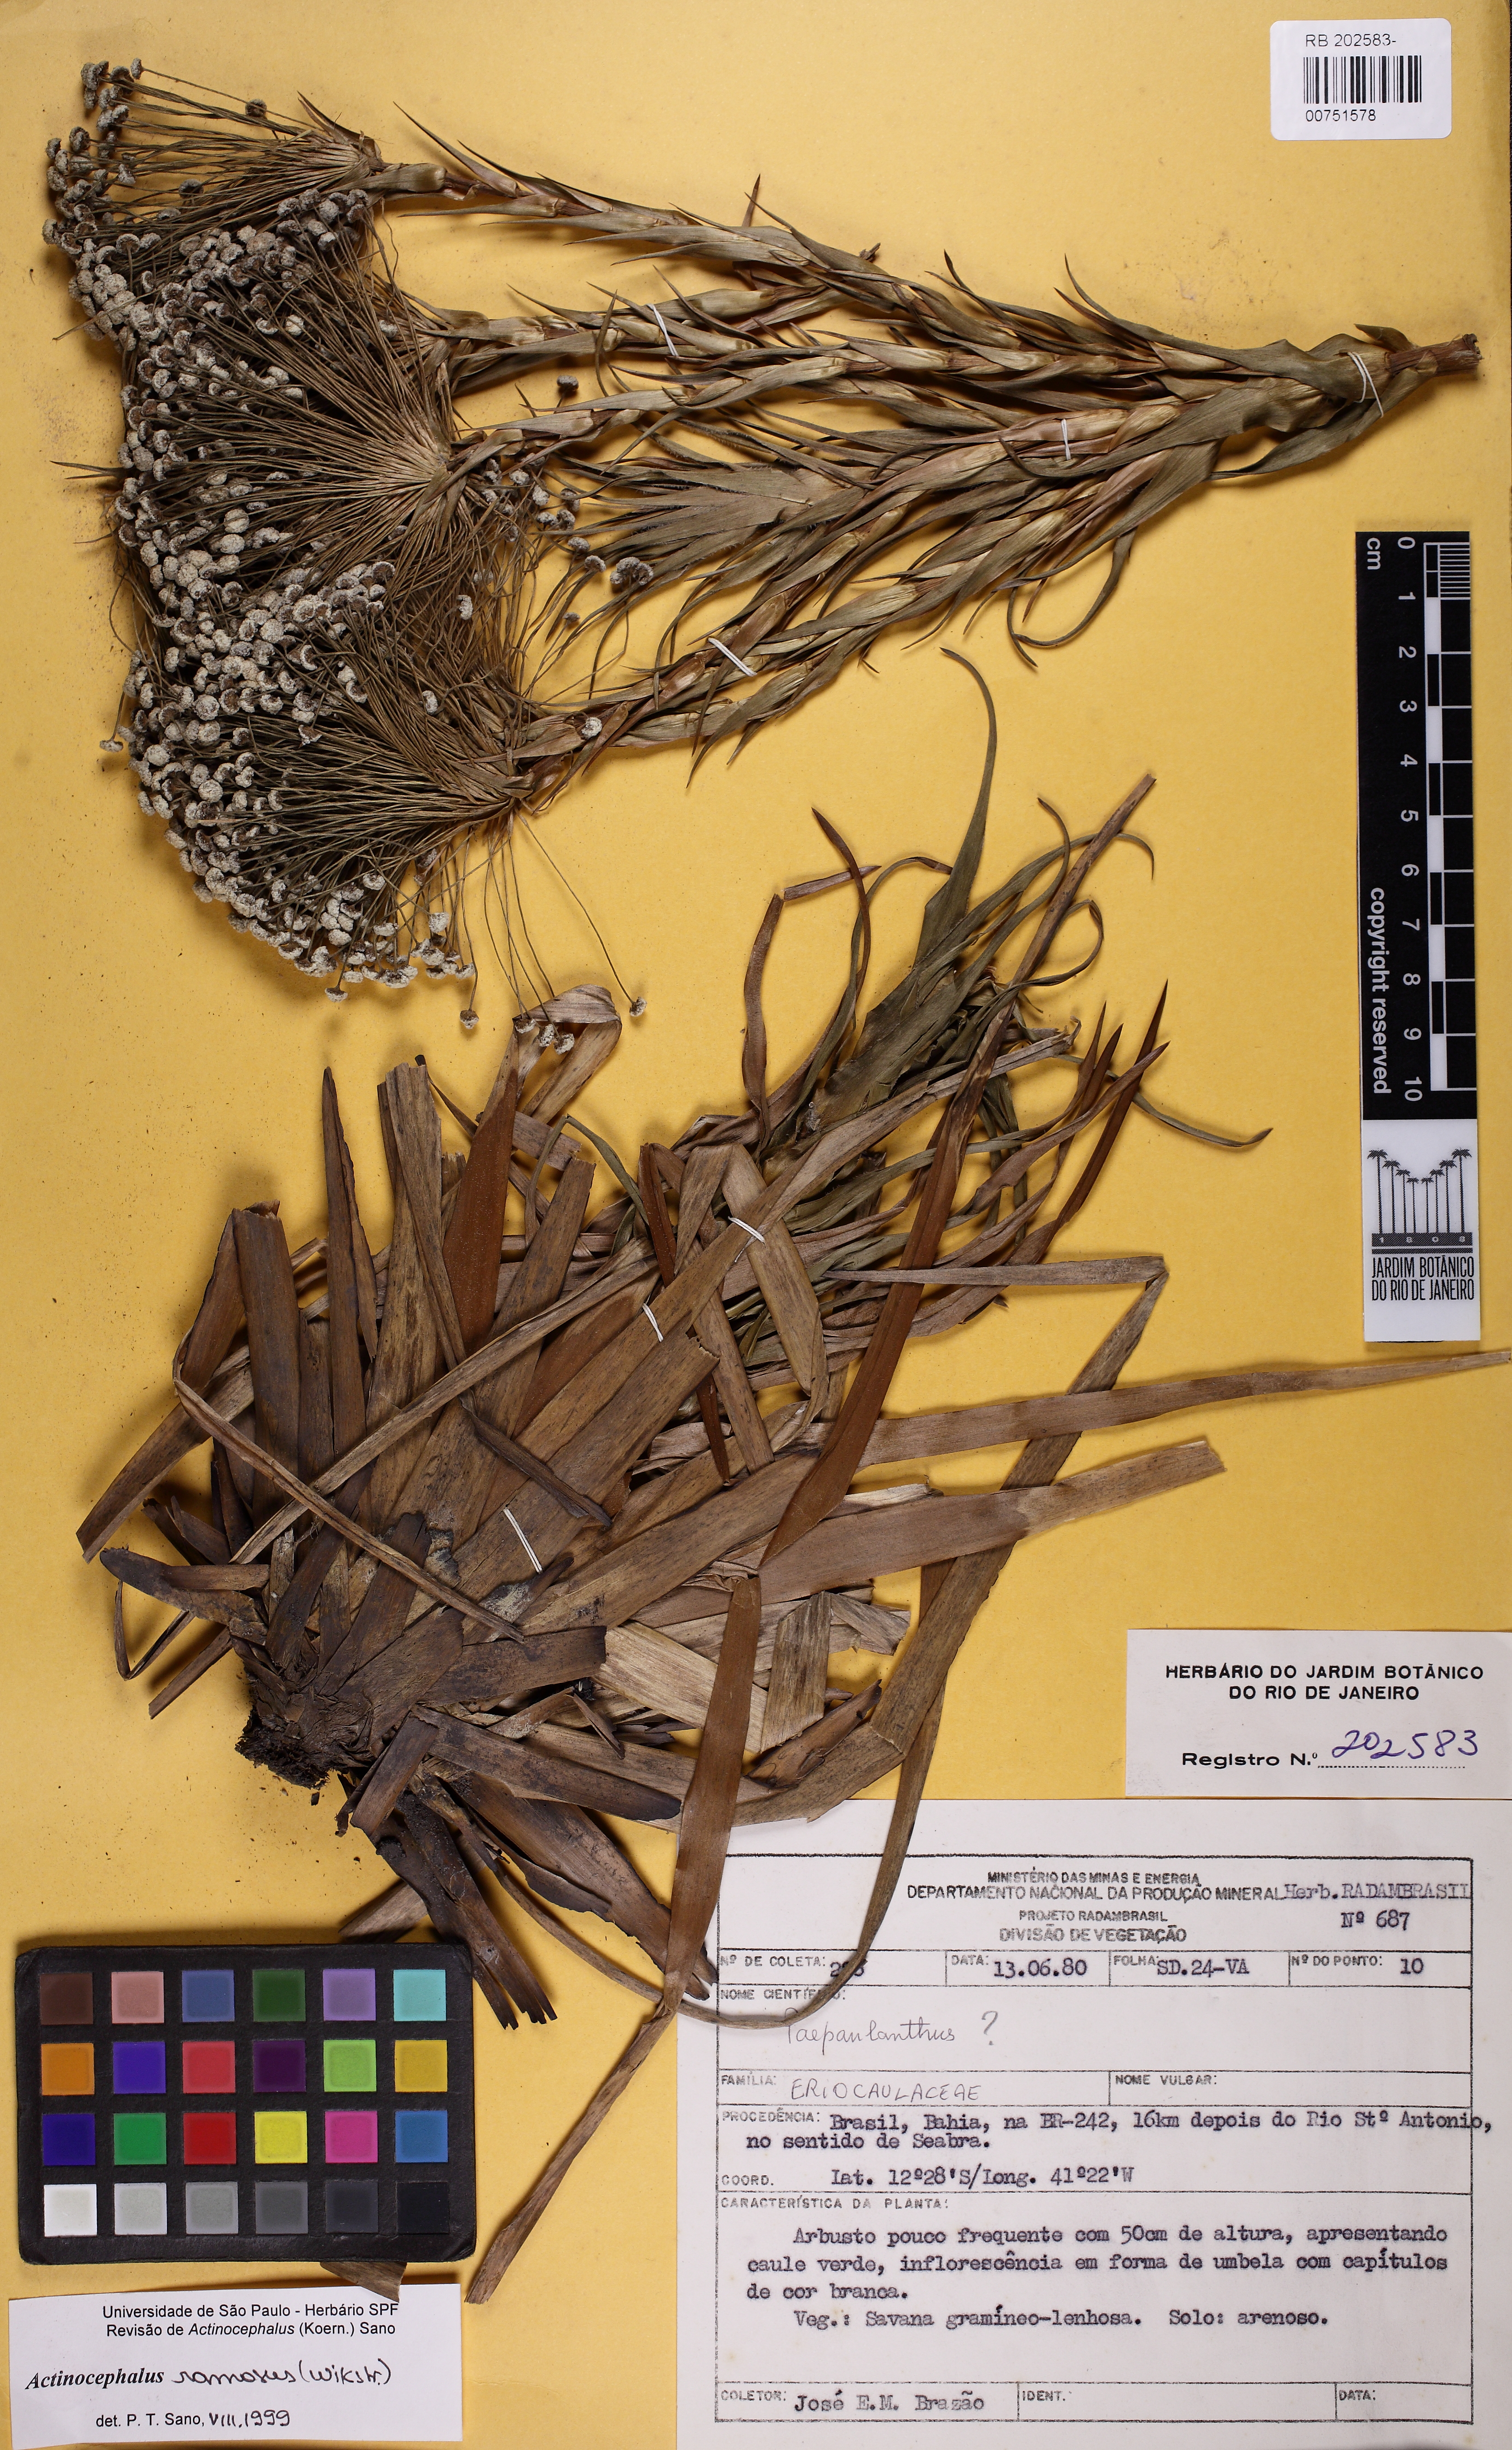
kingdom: Plantae
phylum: Tracheophyta
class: Liliopsida
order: Poales
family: Eriocaulaceae
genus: Paepalanthus
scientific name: Paepalanthus ramosus
